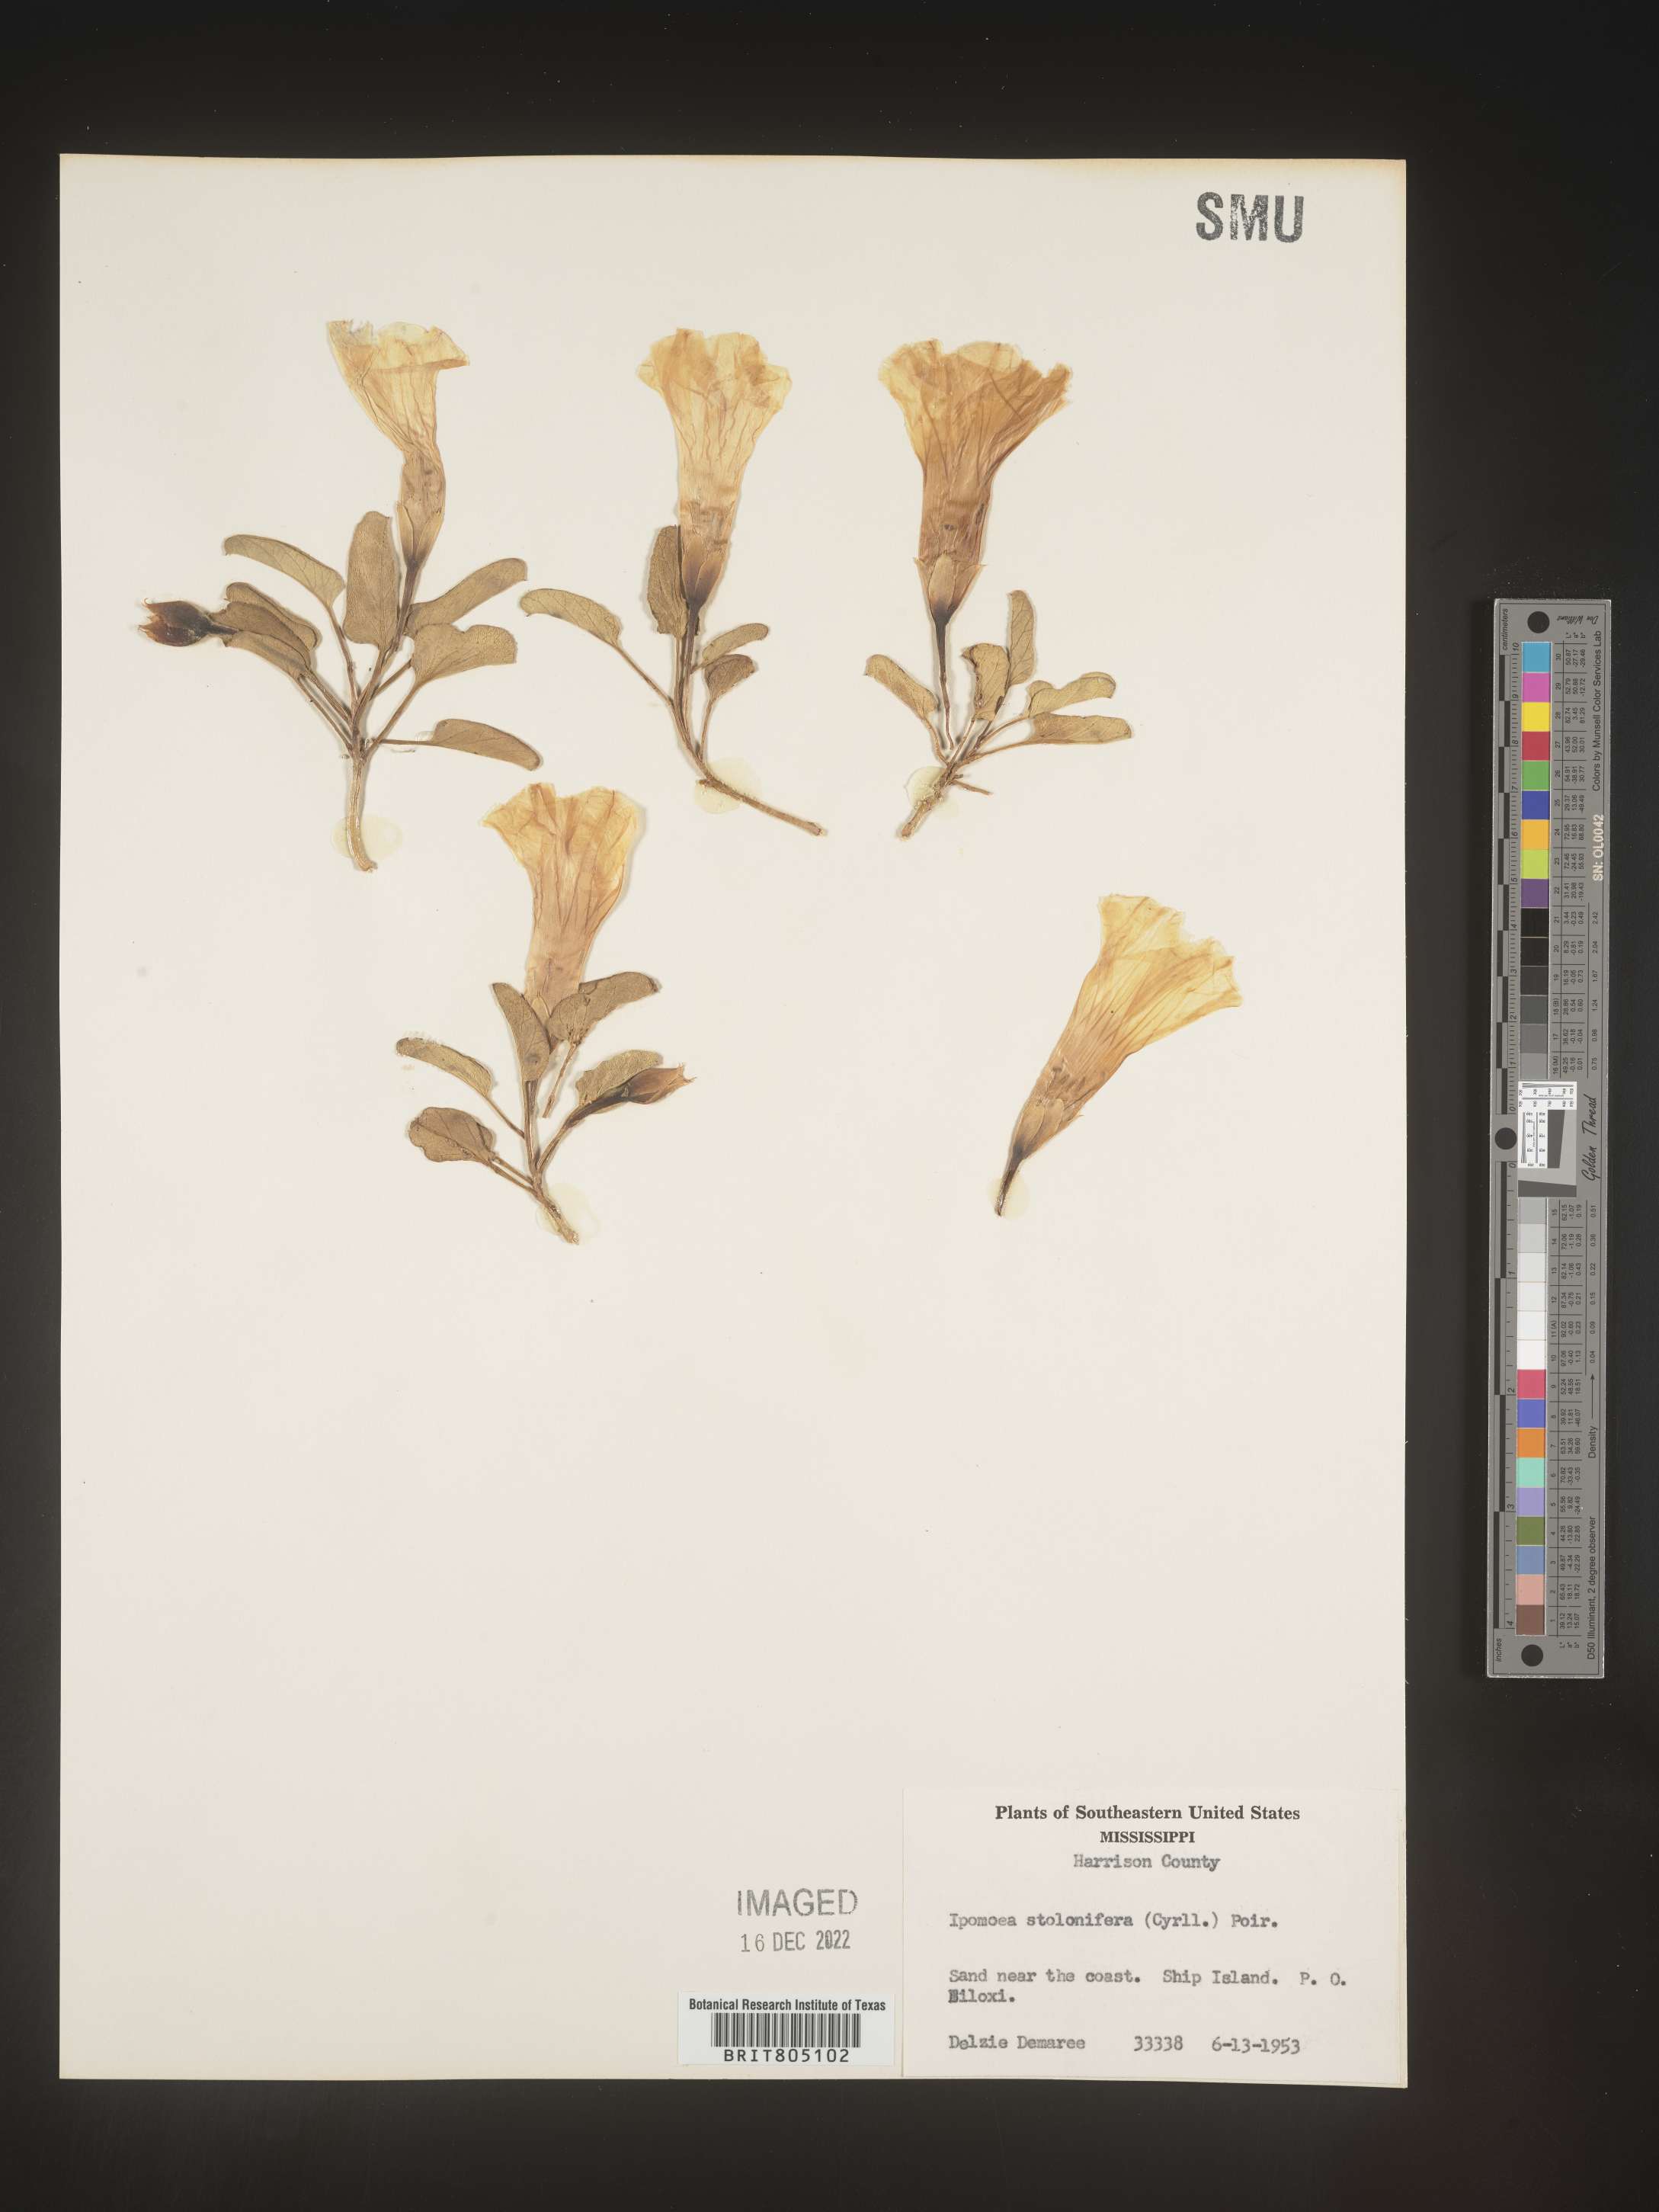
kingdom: Plantae
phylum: Tracheophyta
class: Magnoliopsida
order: Solanales
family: Convolvulaceae
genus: Ipomoea
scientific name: Ipomoea imperati
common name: Fiddle-leaf morning-glory
